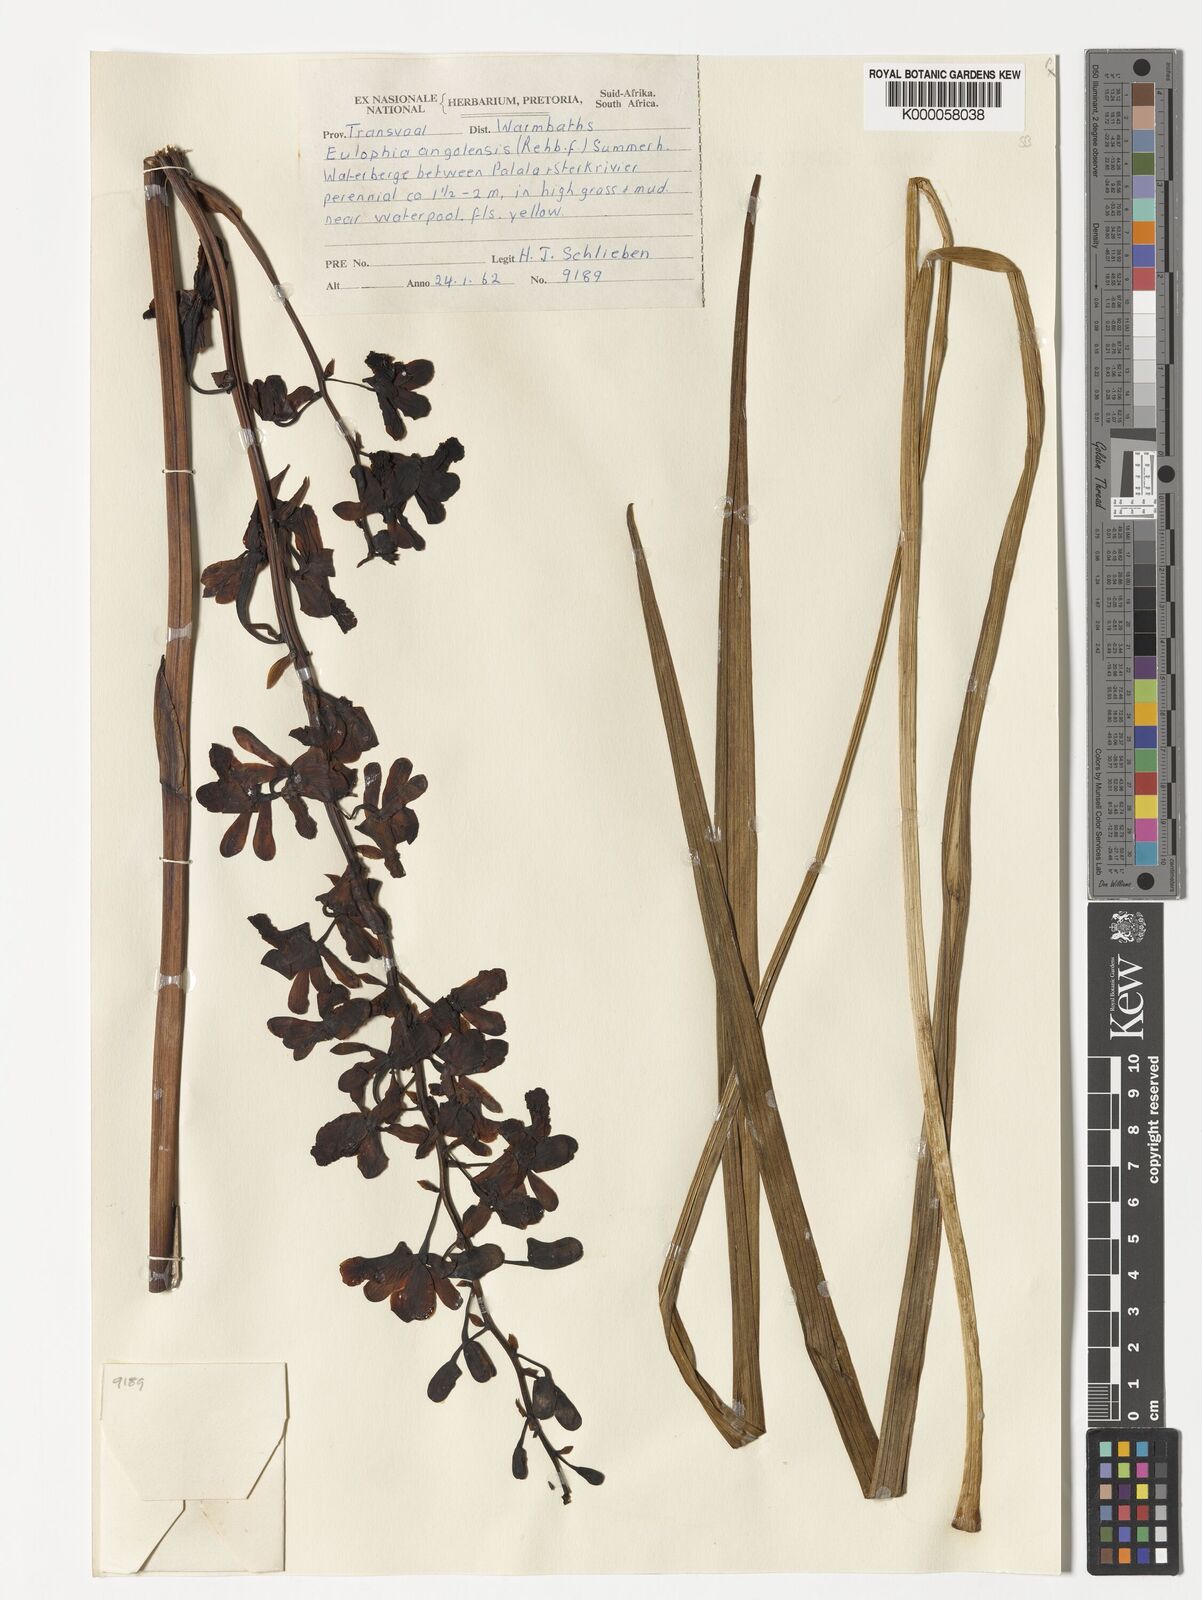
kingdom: Plantae
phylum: Tracheophyta
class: Liliopsida
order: Asparagales
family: Orchidaceae
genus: Eulophia
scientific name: Eulophia angolensis
